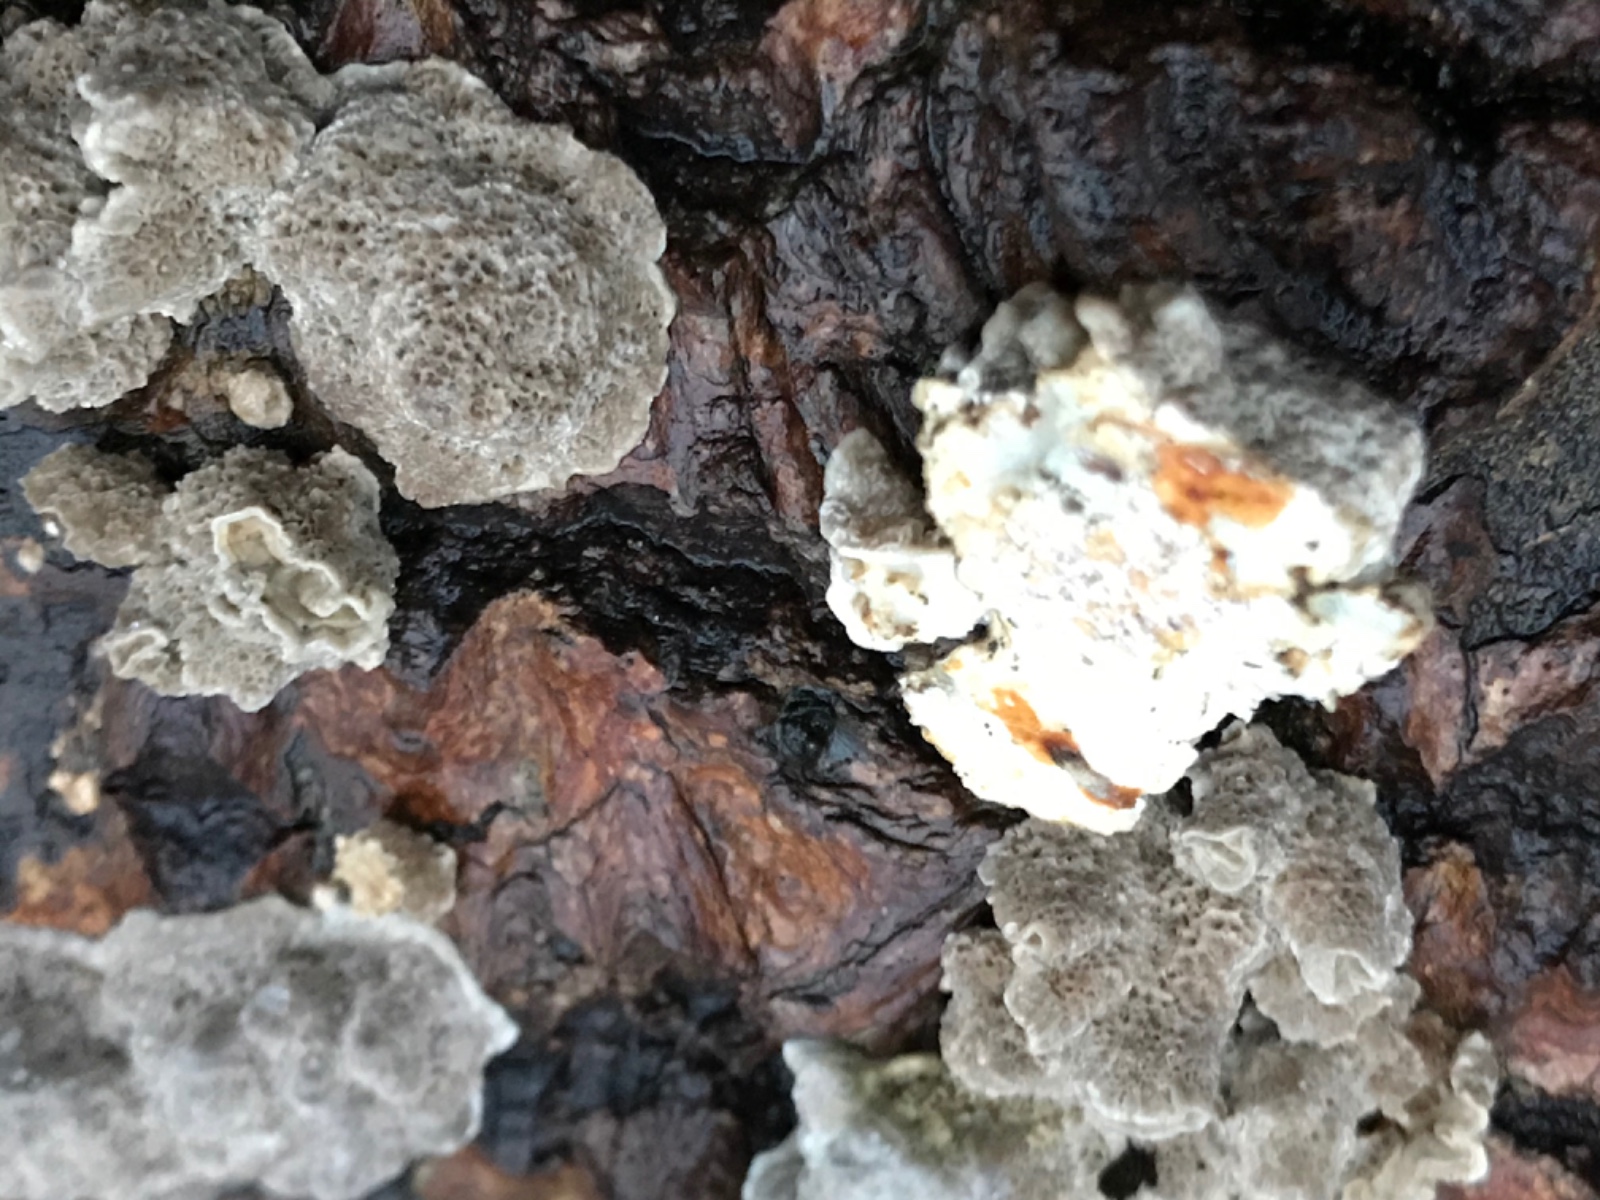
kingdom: Fungi
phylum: Basidiomycota
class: Agaricomycetes
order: Polyporales
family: Polyporaceae
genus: Trametes
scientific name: Trametes ochracea
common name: bæltet læderporesvamp
